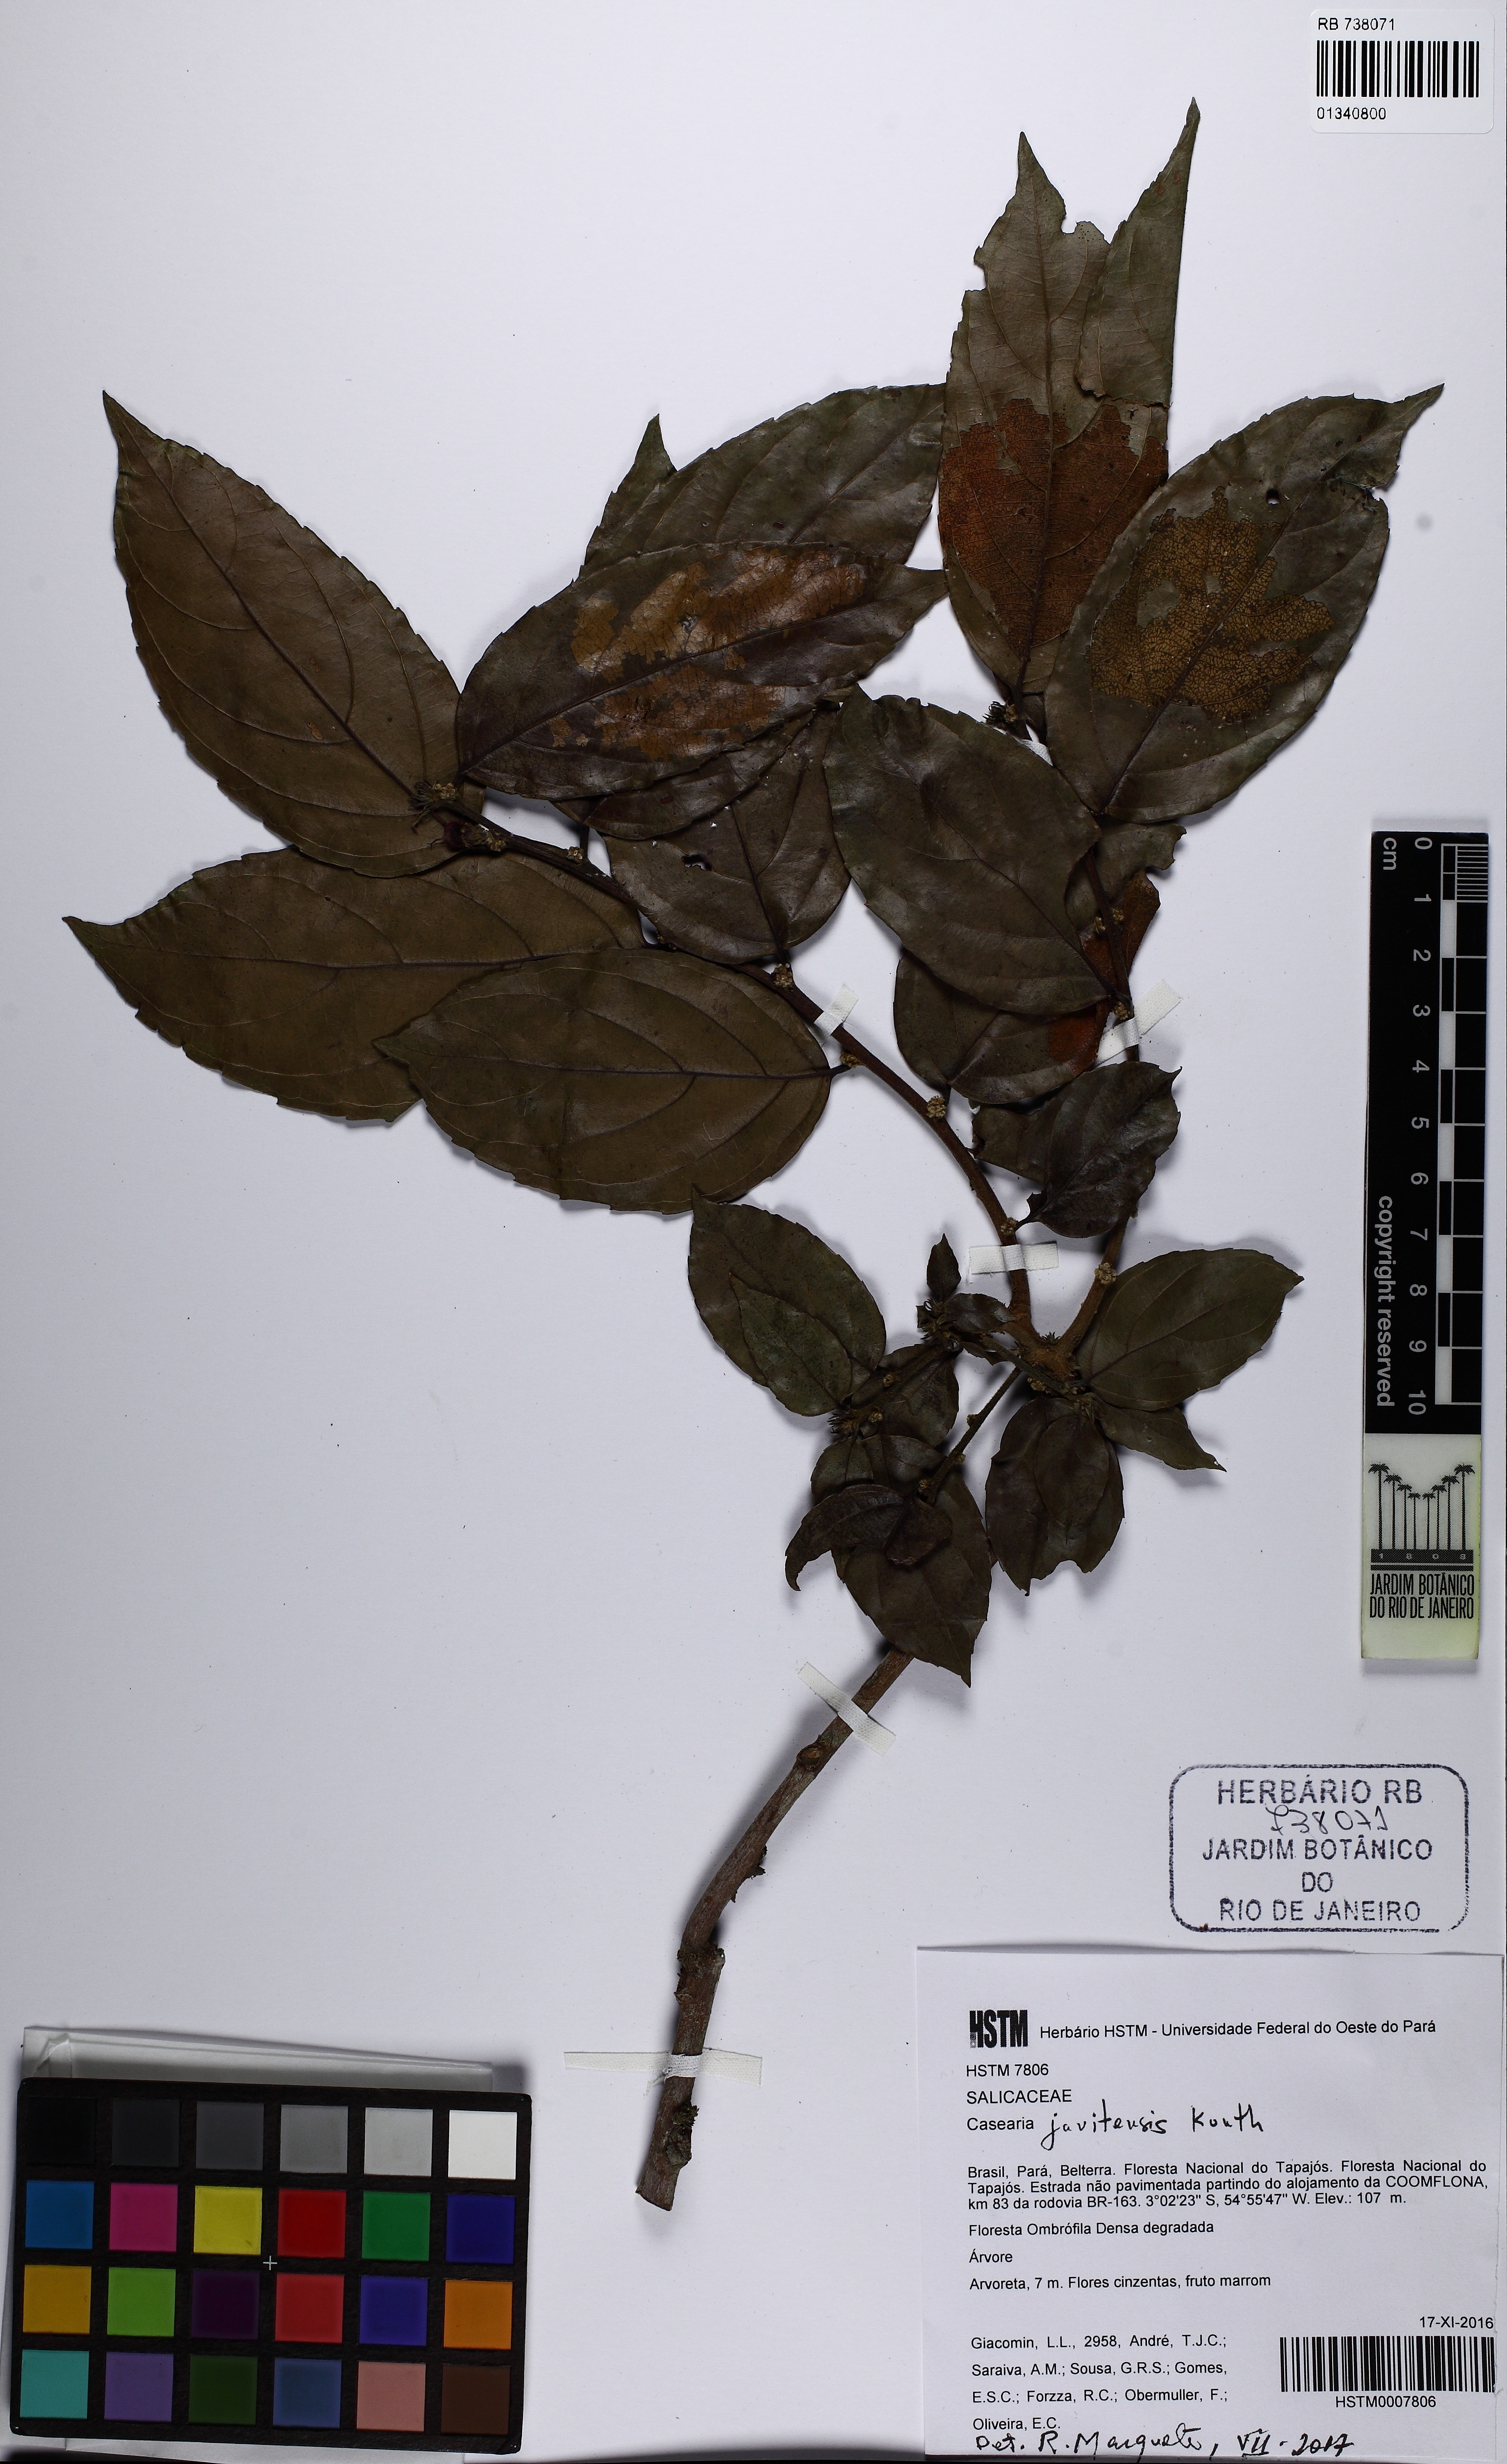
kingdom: Plantae
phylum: Tracheophyta
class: Magnoliopsida
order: Malpighiales
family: Salicaceae
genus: Piparea
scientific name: Piparea multiflora
